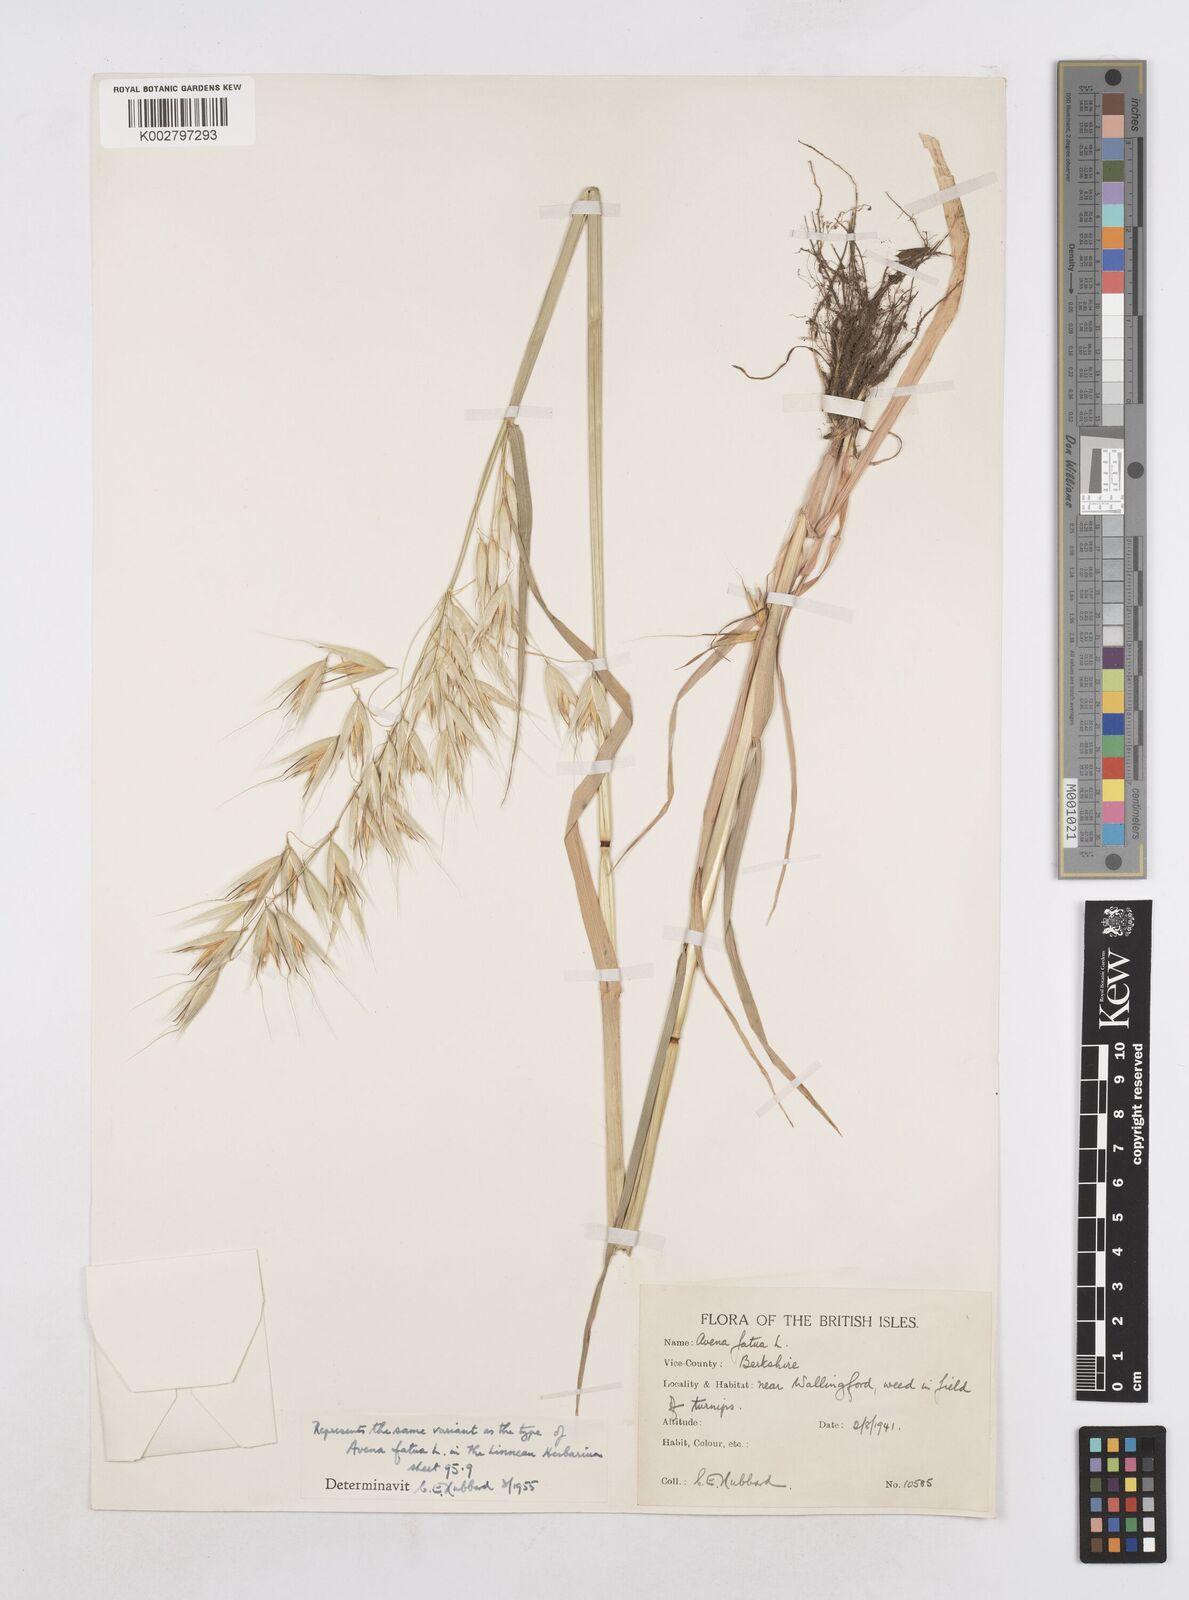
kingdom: Plantae
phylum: Tracheophyta
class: Liliopsida
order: Poales
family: Poaceae
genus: Avena
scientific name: Avena fatua
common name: Wild oat
